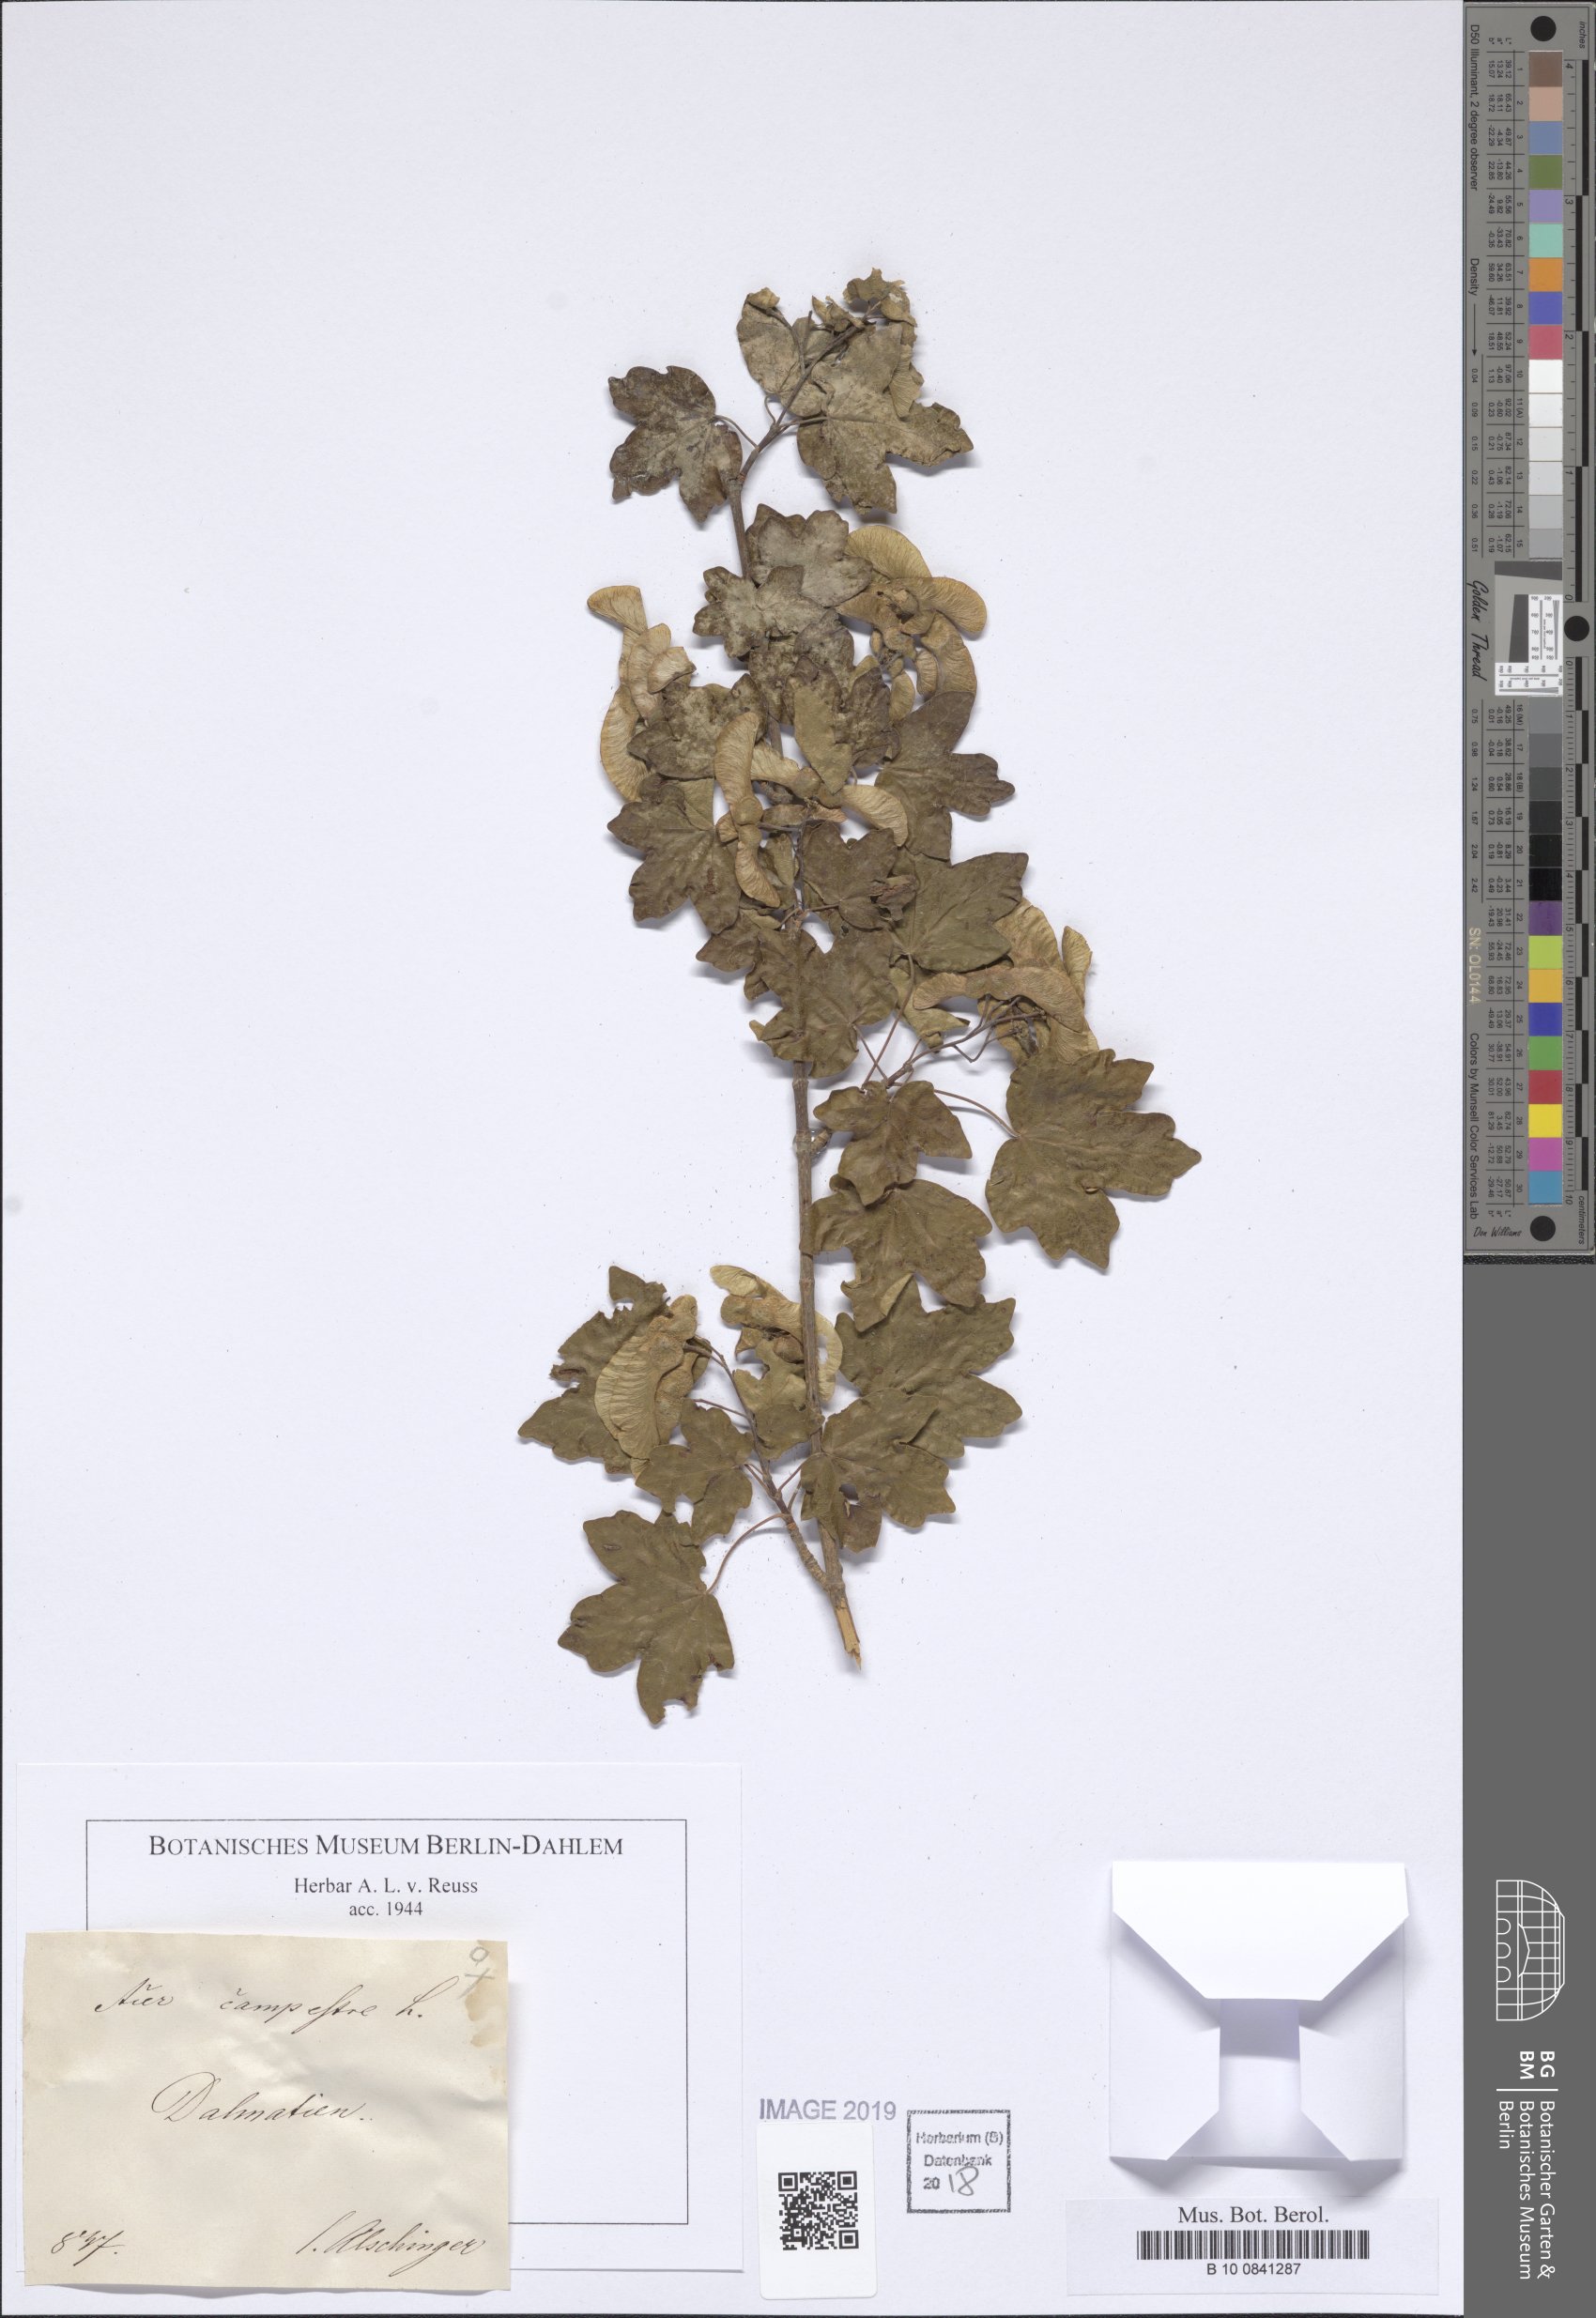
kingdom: Plantae
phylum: Tracheophyta
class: Magnoliopsida
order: Sapindales
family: Sapindaceae
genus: Acer
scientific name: Acer campestre
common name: Field maple
